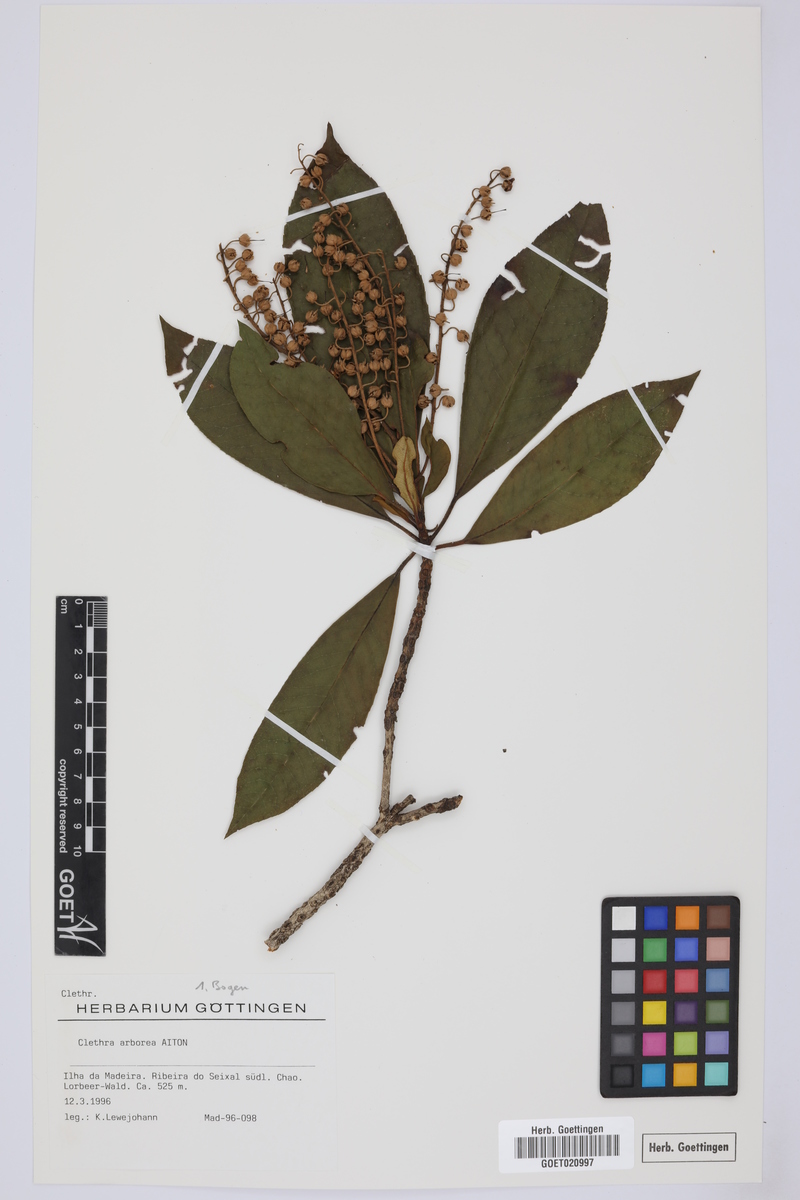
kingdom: Plantae
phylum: Tracheophyta
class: Magnoliopsida
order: Ericales
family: Clethraceae
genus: Clethra
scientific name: Clethra arborea
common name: Lily-of-the-valley-tree
